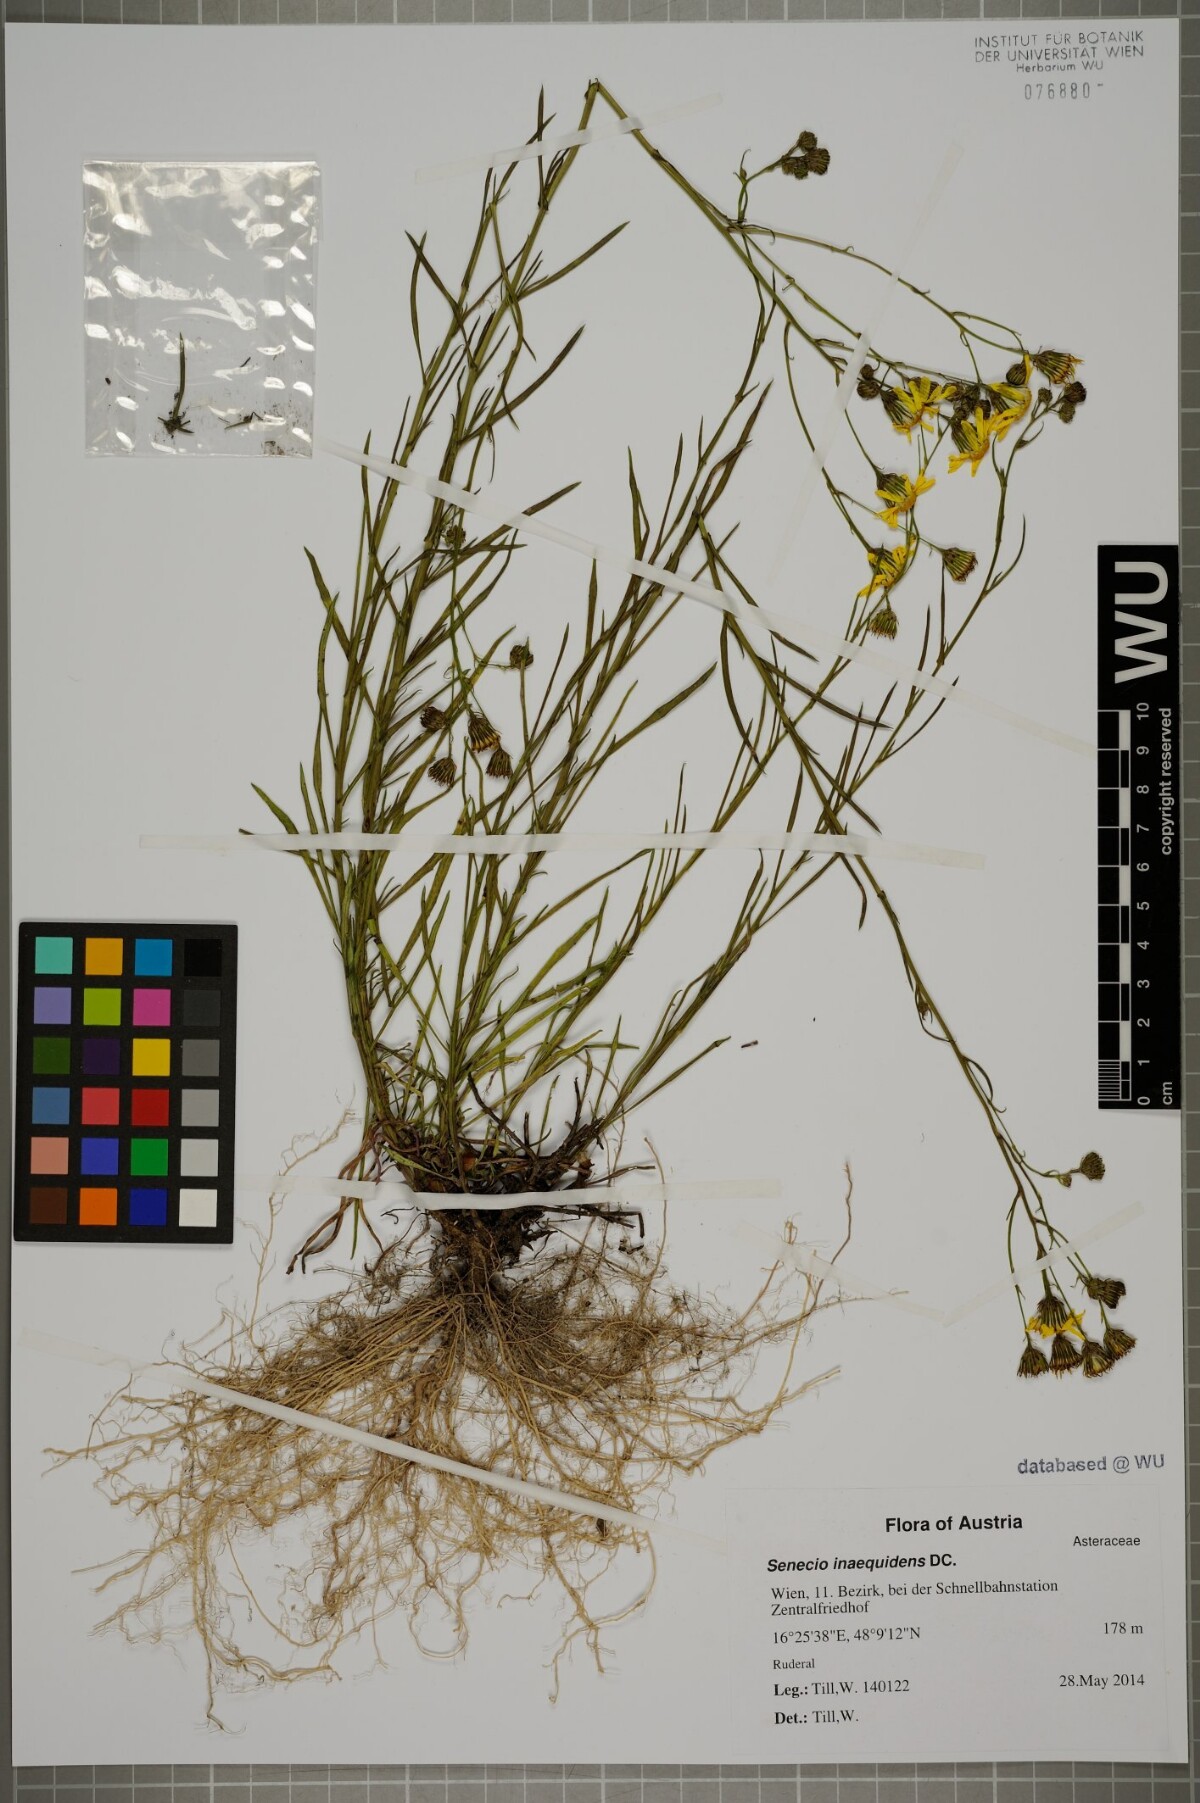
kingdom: Plantae
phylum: Tracheophyta
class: Magnoliopsida
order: Asterales
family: Asteraceae
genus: Senecio
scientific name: Senecio inaequidens
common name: Narrow-leaved ragwort
